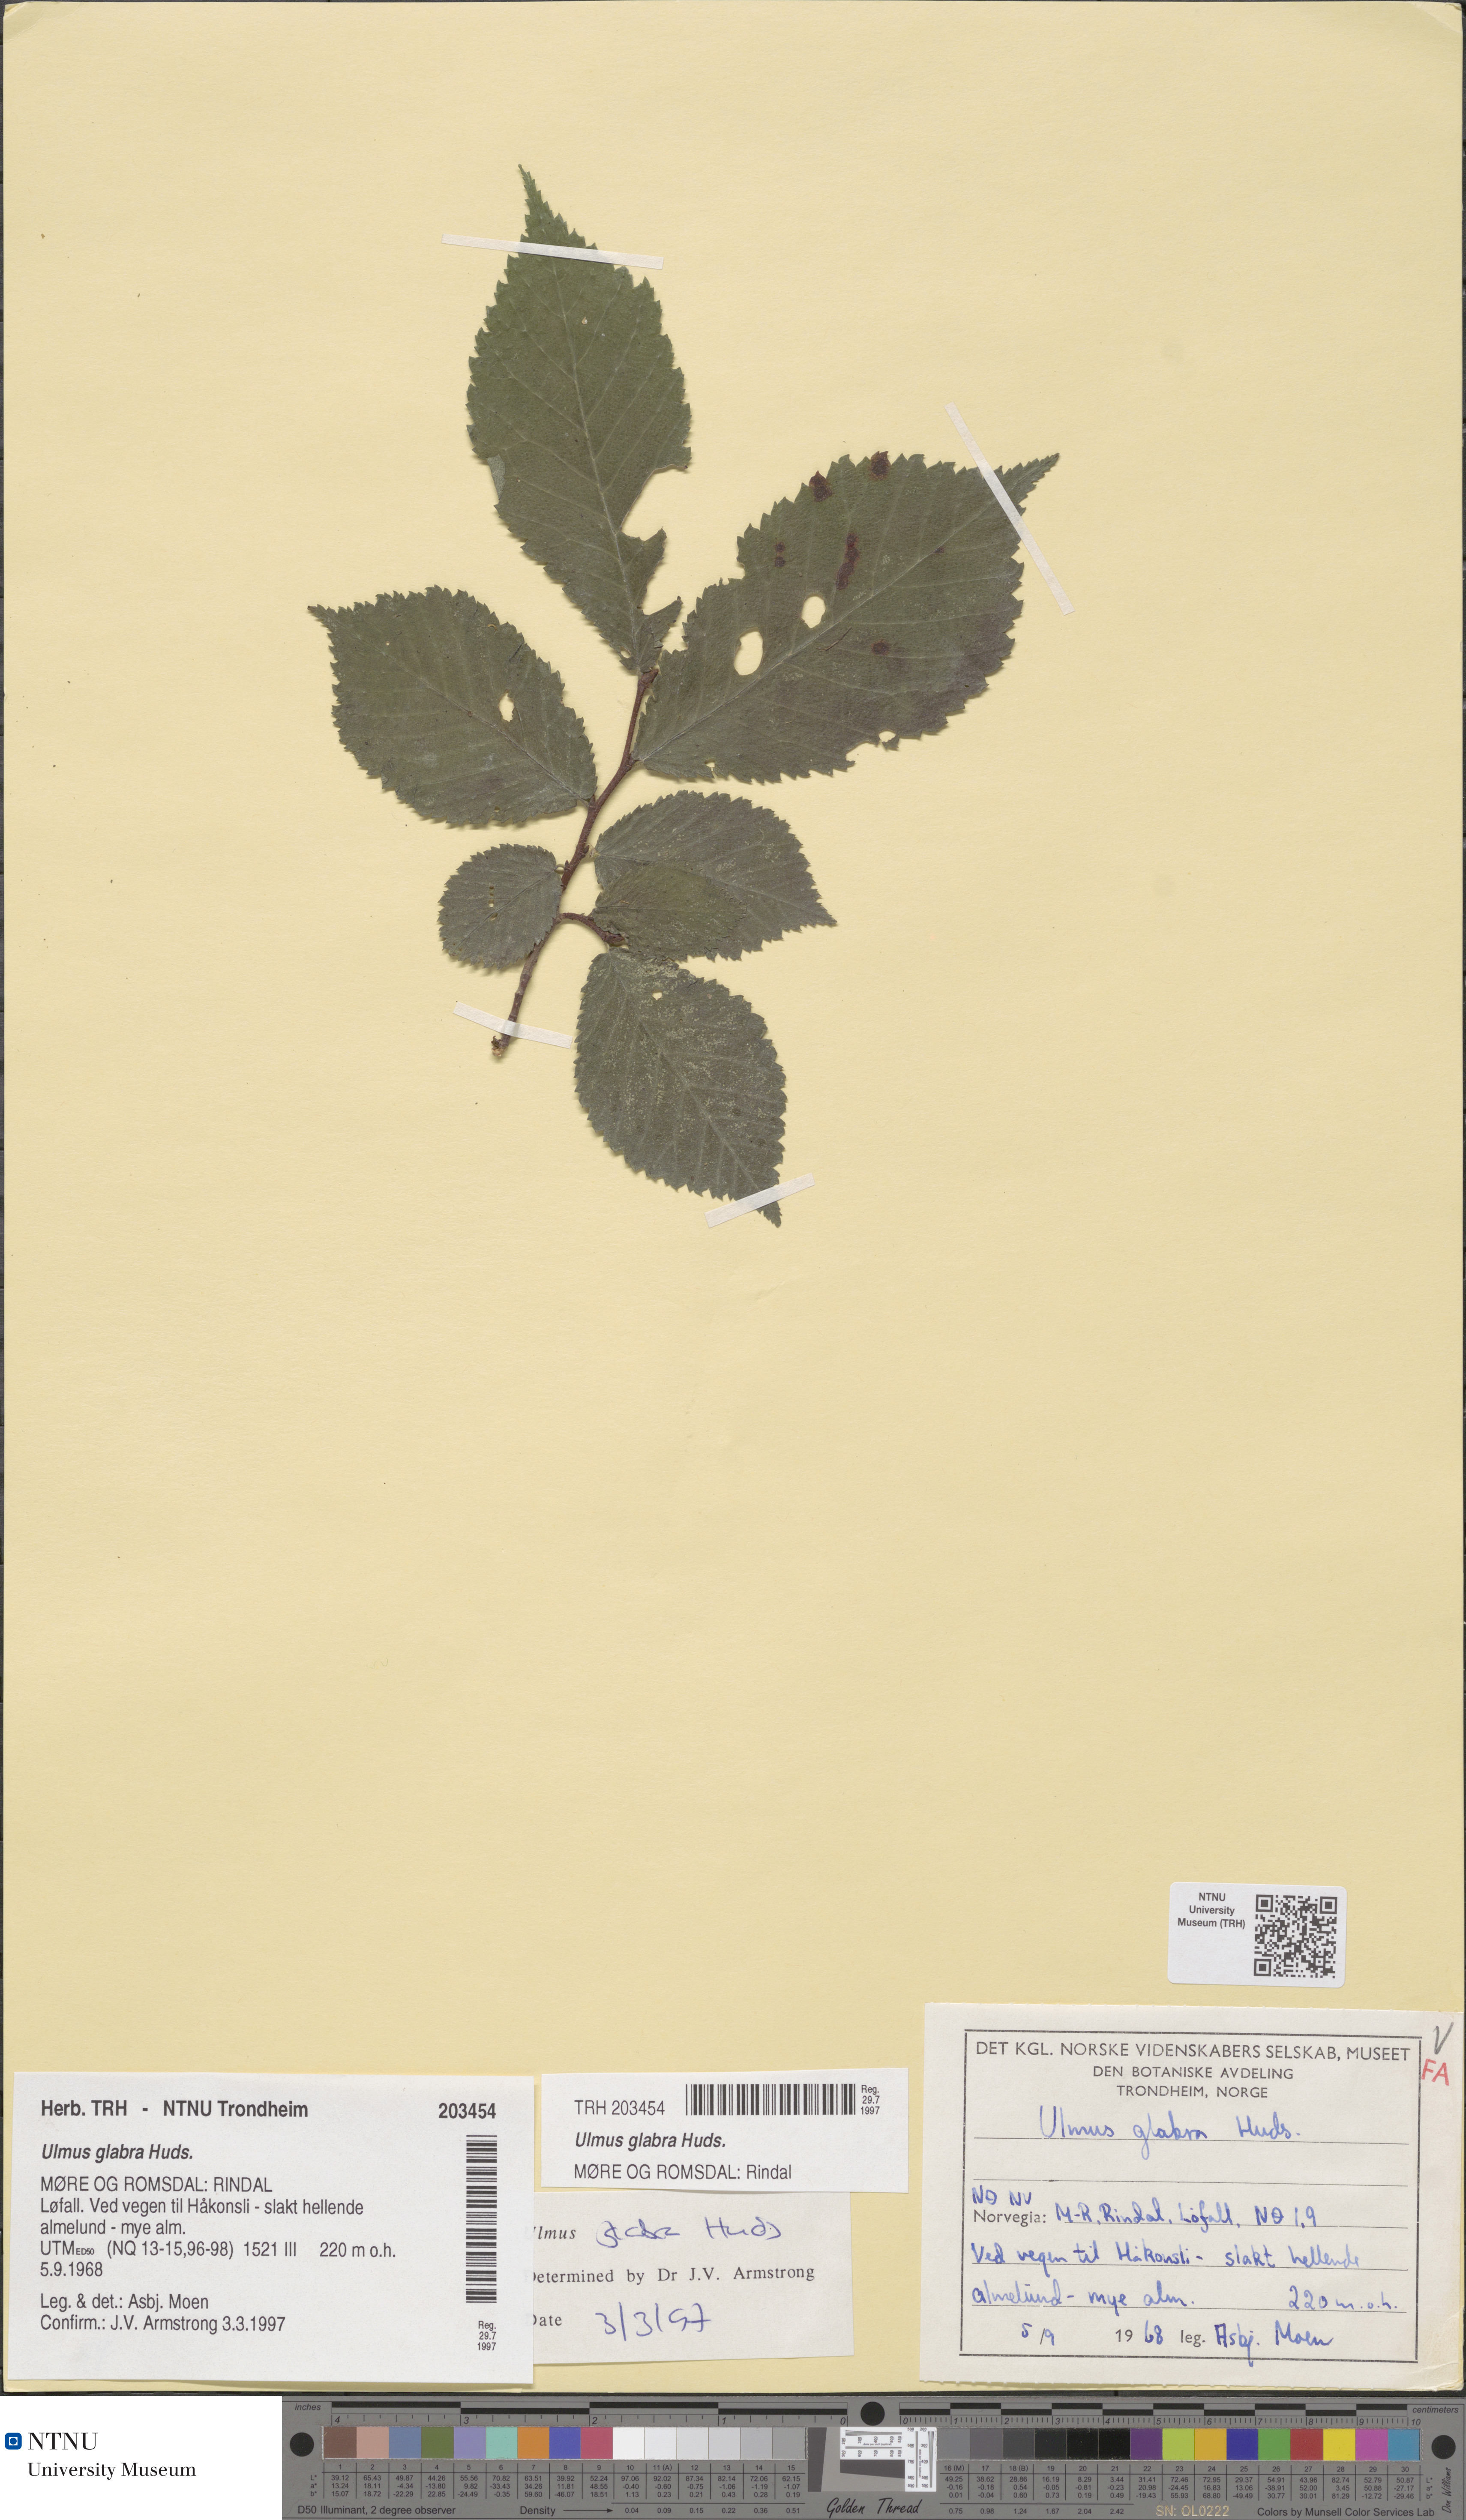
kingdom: Plantae
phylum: Tracheophyta
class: Magnoliopsida
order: Rosales
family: Ulmaceae
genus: Ulmus
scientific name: Ulmus glabra
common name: Wych elm
